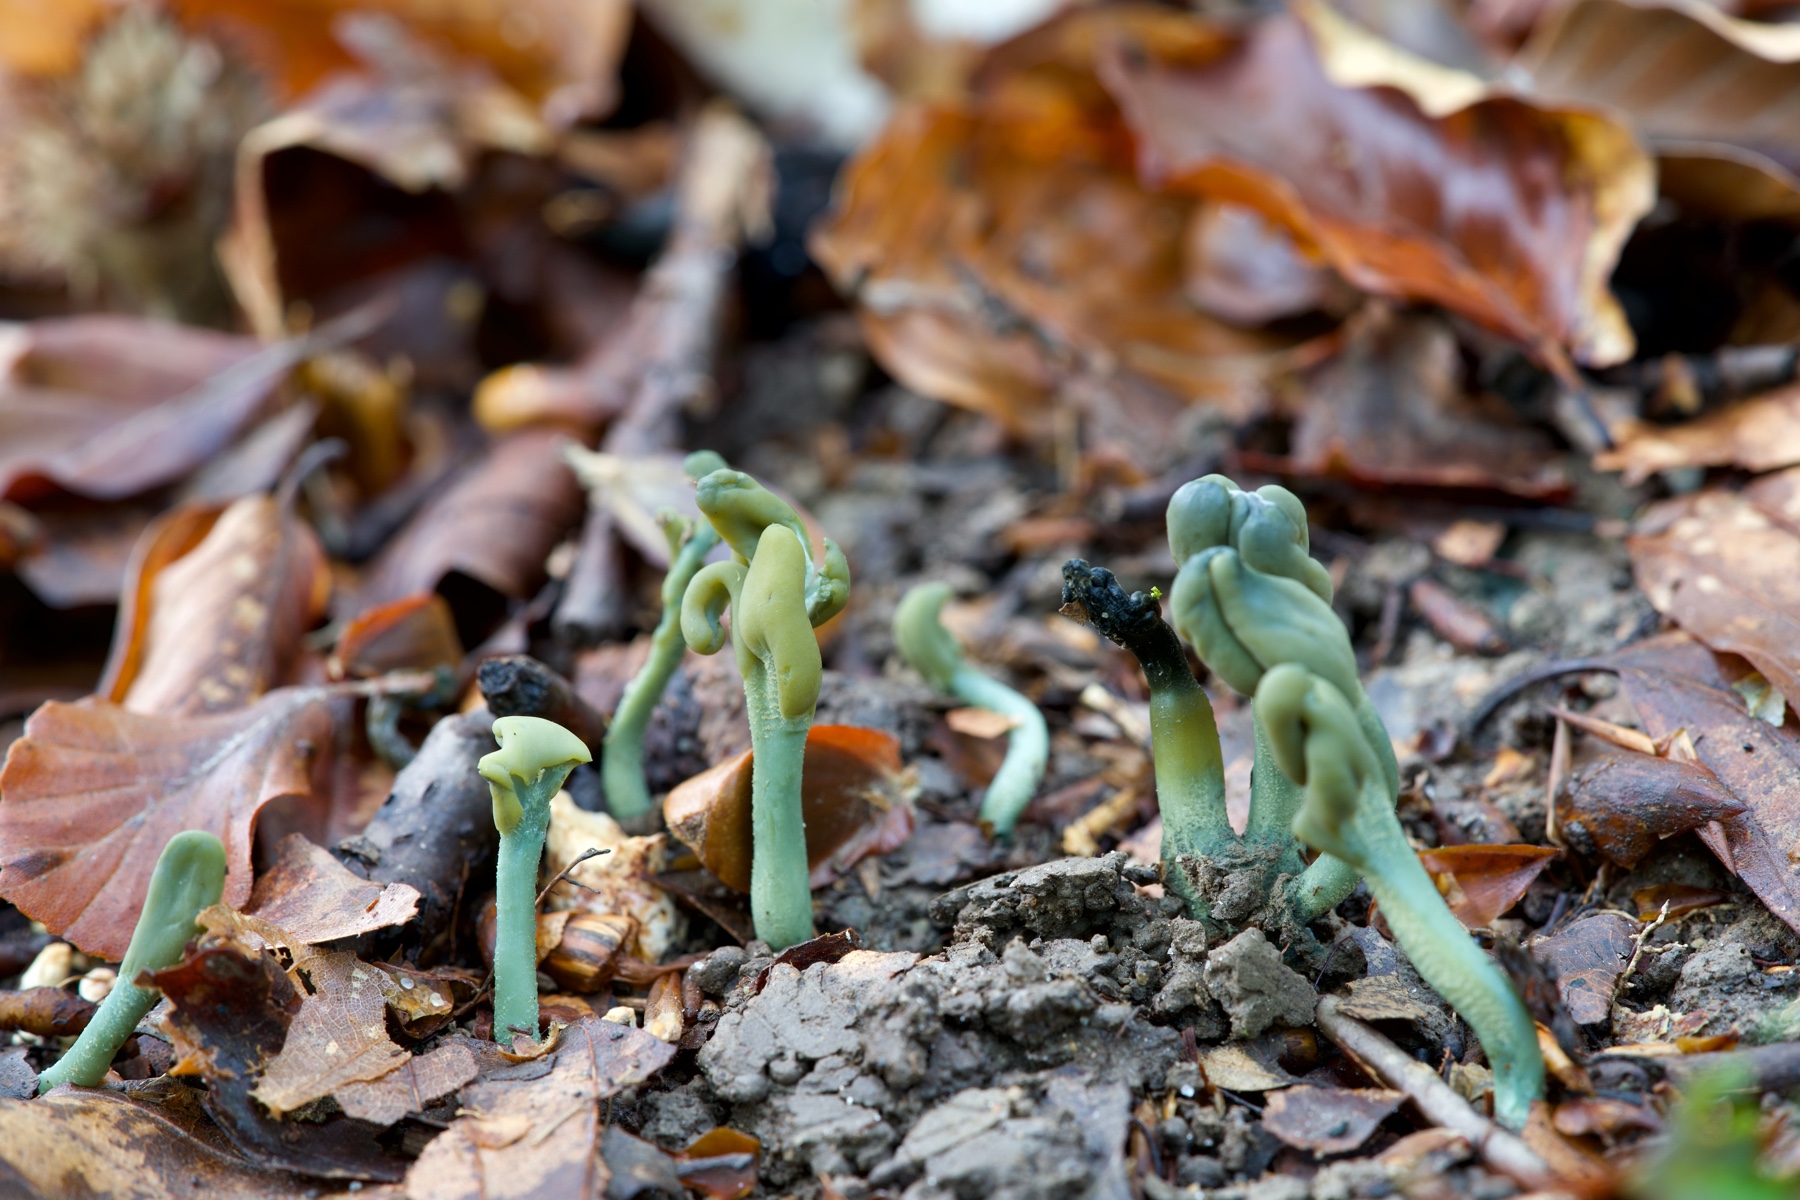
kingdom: Fungi
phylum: Ascomycota
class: Leotiomycetes
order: Leotiales
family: Leotiaceae
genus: Microglossum
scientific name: Microglossum griseoviride
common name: grågrøn farvetunge
